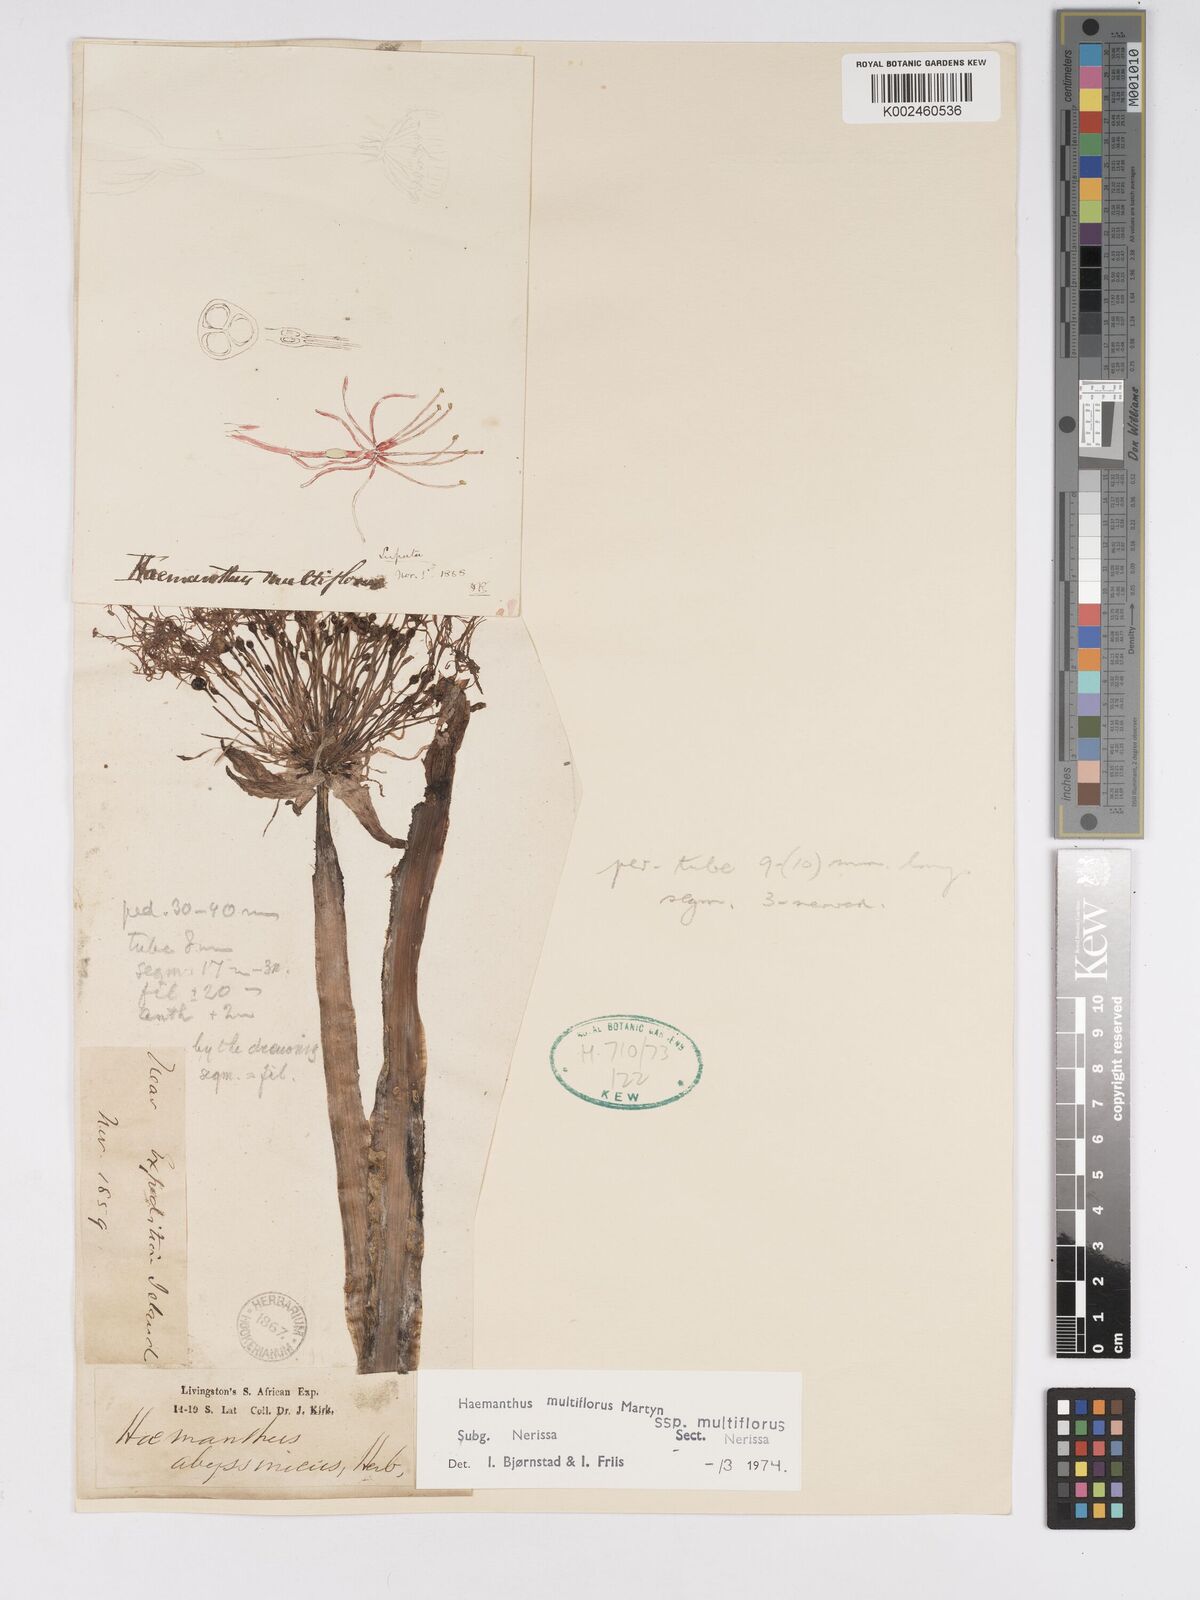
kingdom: Plantae
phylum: Tracheophyta
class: Liliopsida
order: Asparagales
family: Amaryllidaceae
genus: Scadoxus
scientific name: Scadoxus multiflorus
